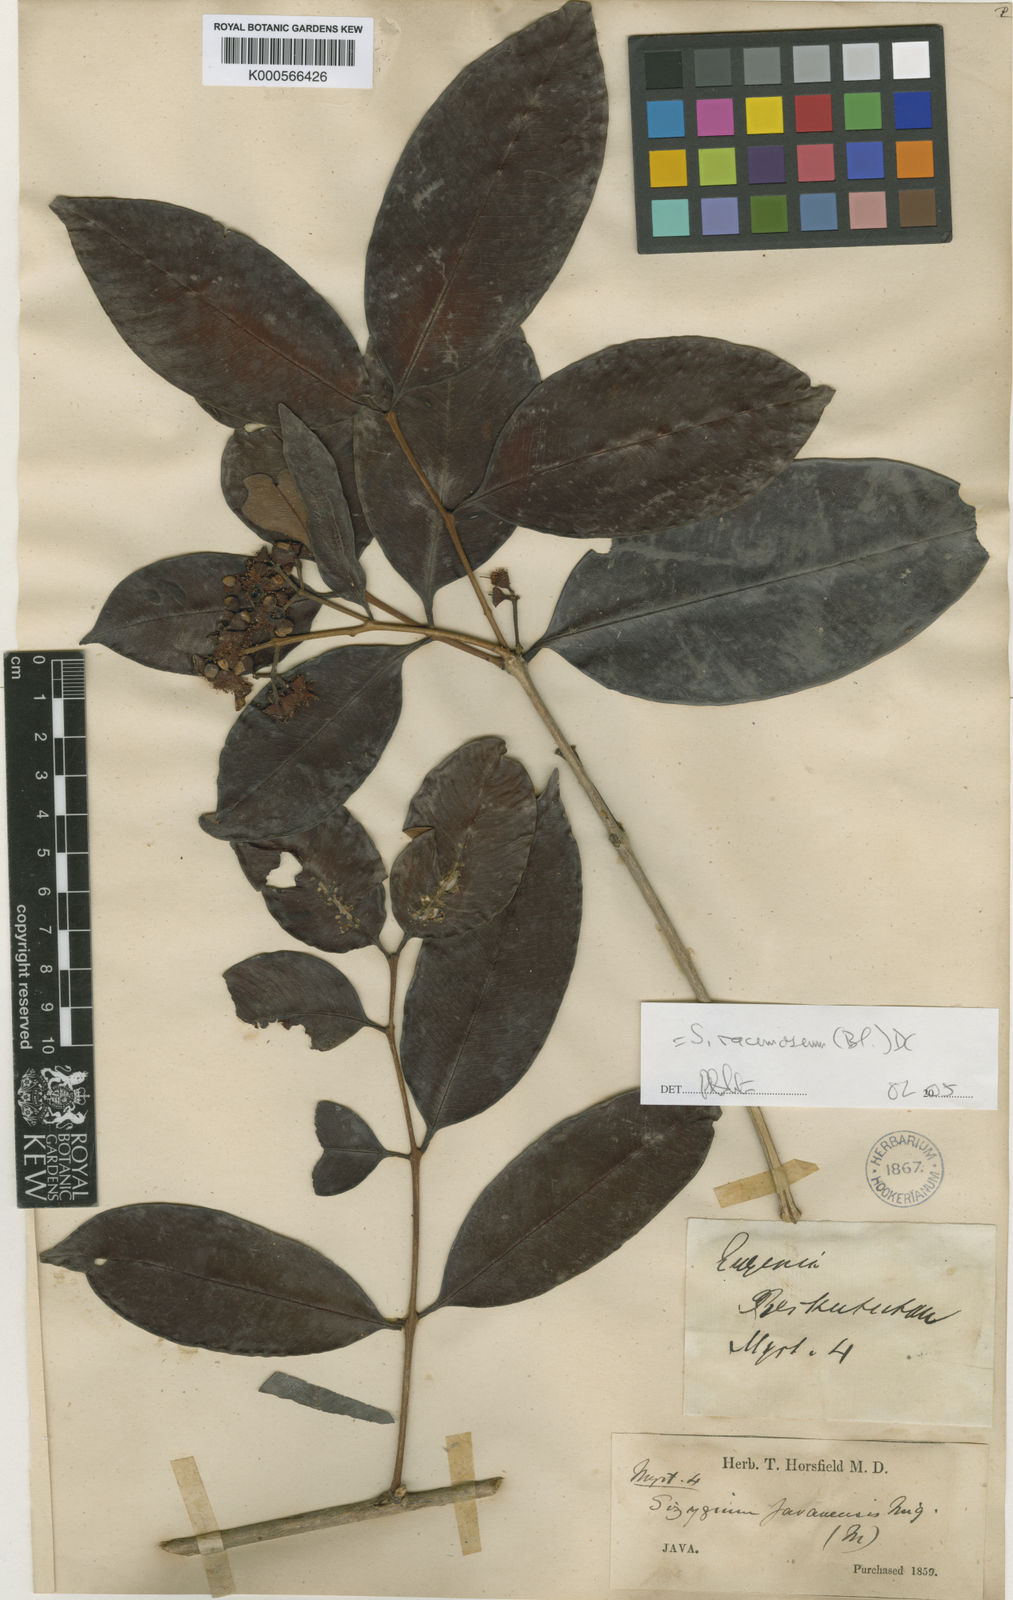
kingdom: Plantae
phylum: Tracheophyta
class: Magnoliopsida
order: Myrtales
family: Myrtaceae
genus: Syzygium
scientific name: Syzygium racemosum
